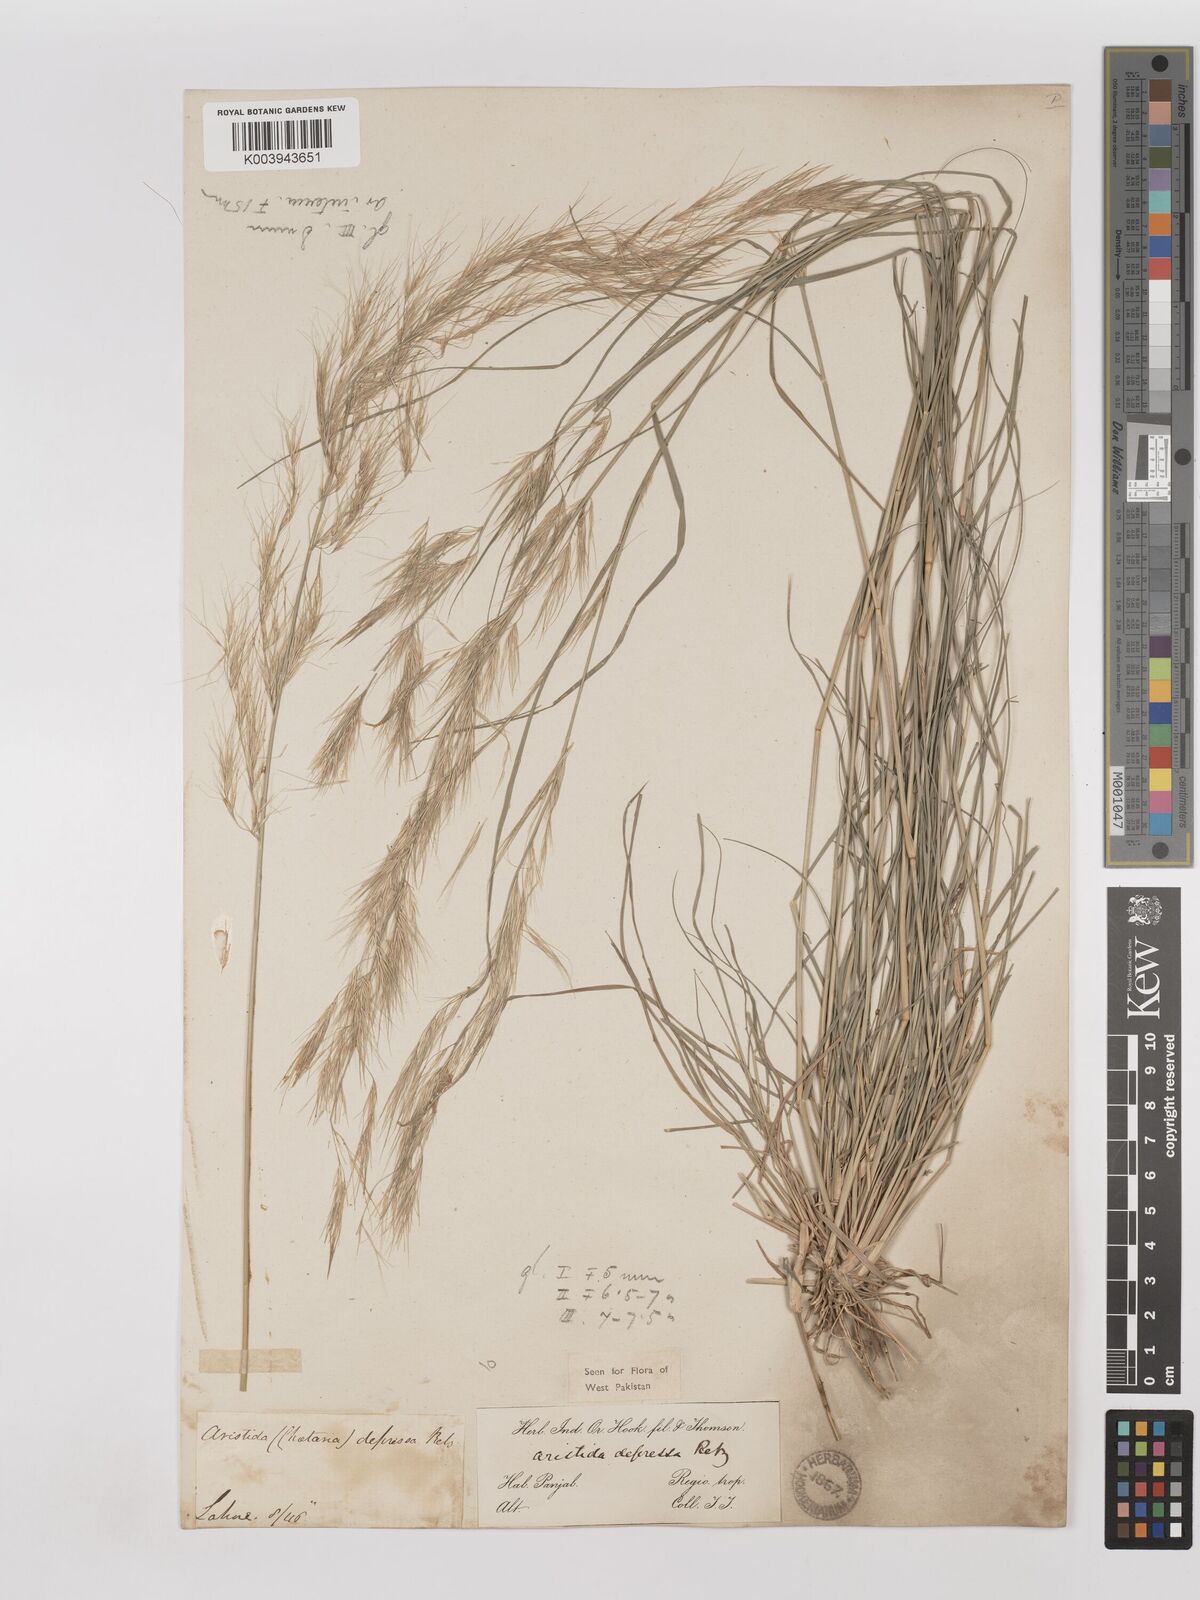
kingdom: Plantae
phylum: Tracheophyta
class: Liliopsida
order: Poales
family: Poaceae
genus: Aristida
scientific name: Aristida adscensionis
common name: Sixweeks threeawn
